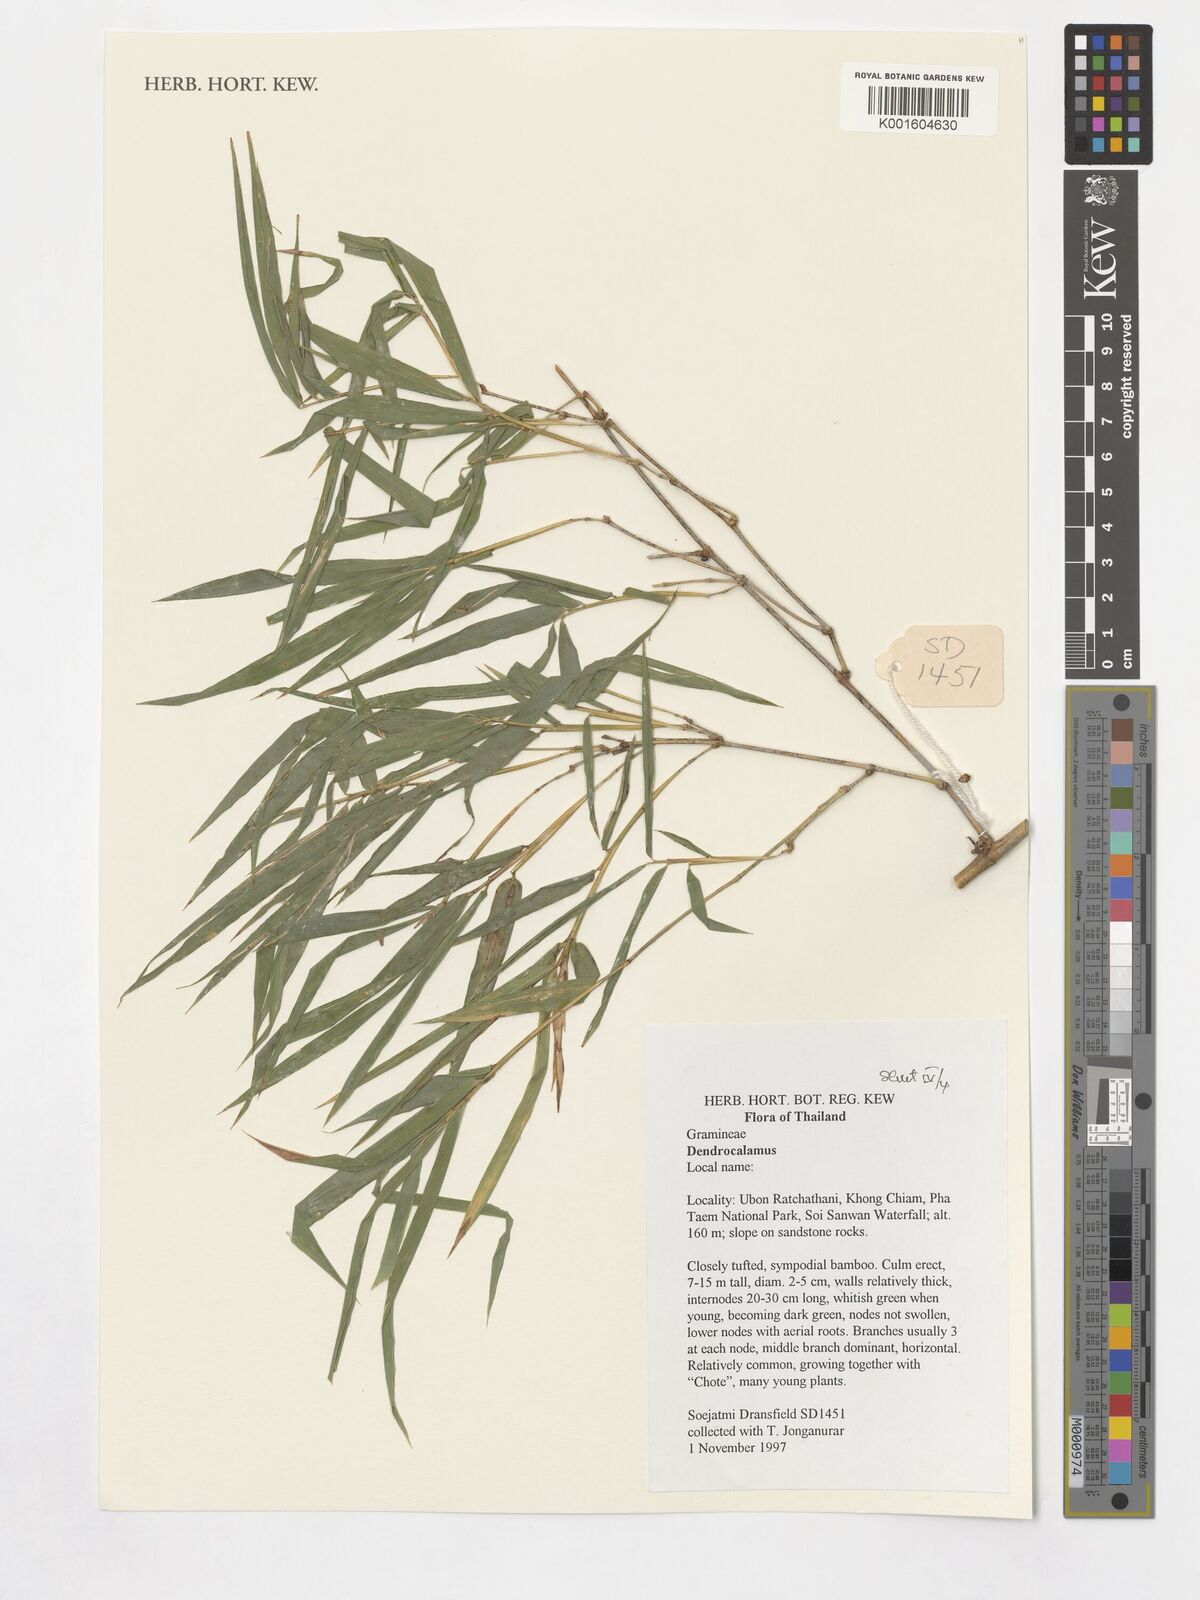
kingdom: Plantae
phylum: Tracheophyta
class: Liliopsida
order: Poales
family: Poaceae
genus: Dendrocalamus
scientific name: Dendrocalamus
